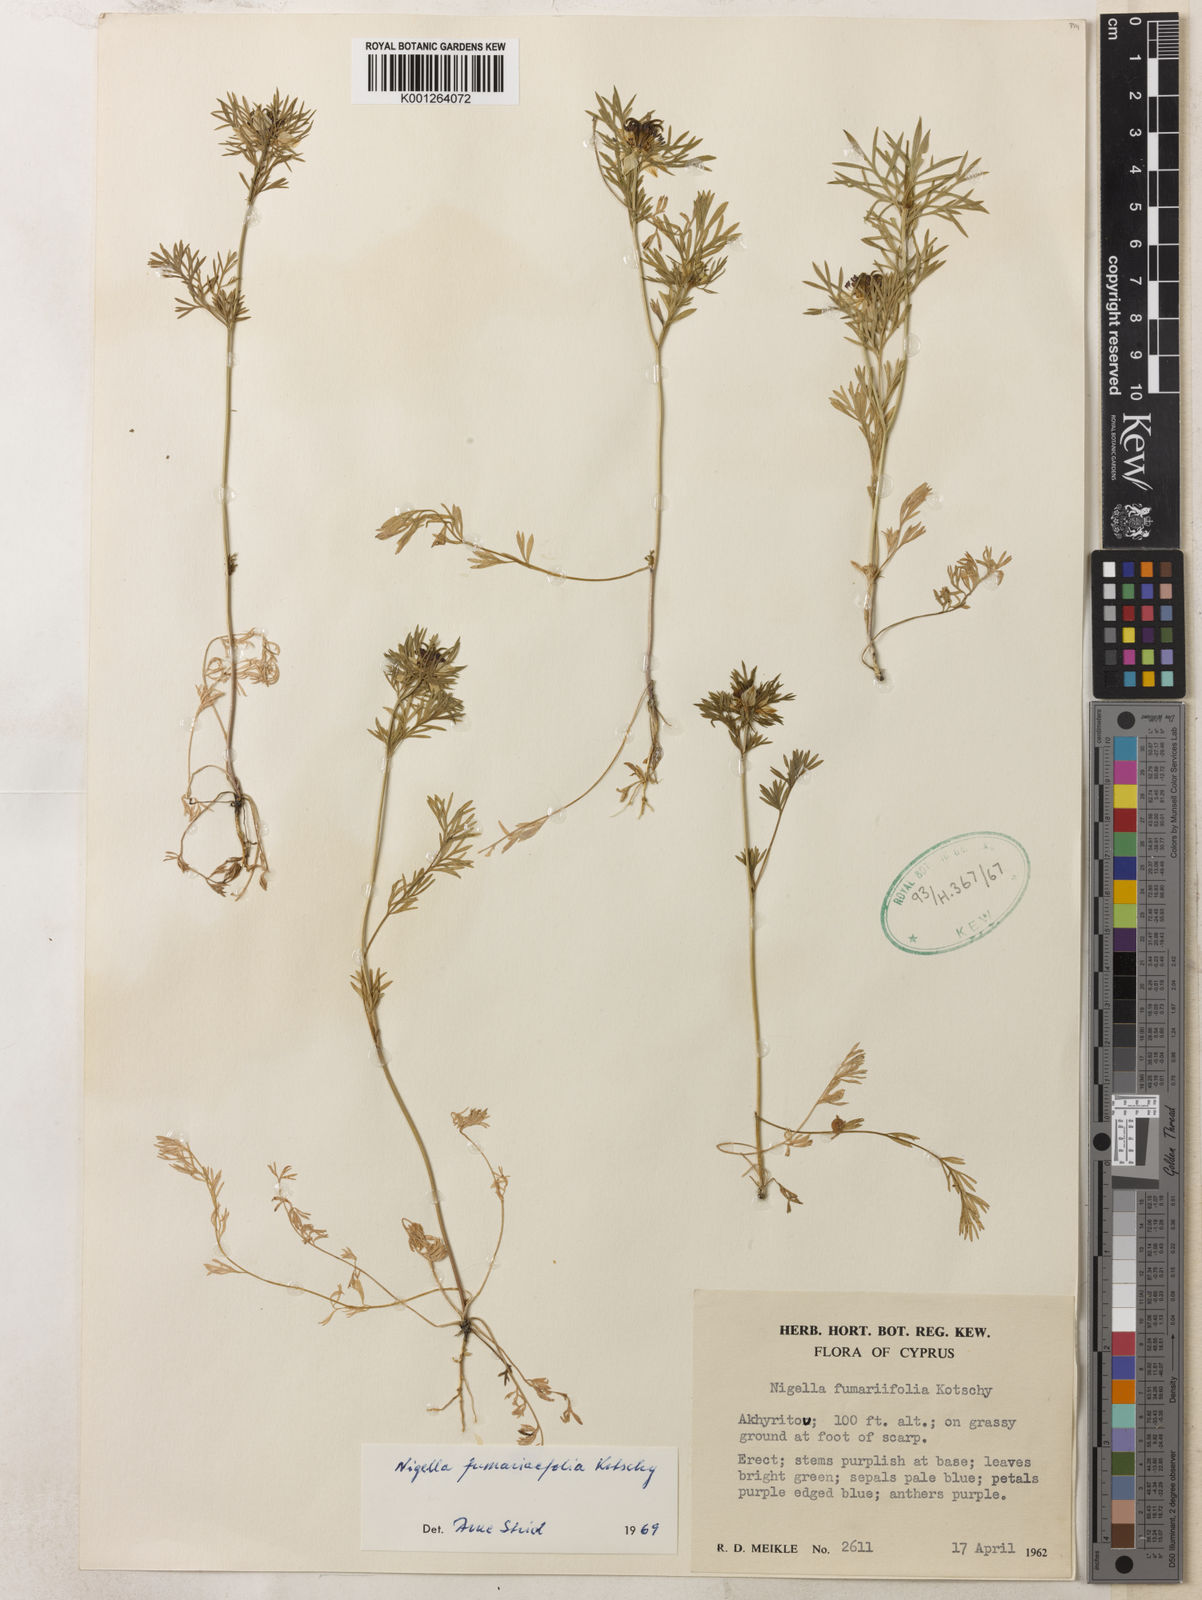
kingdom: Plantae
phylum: Tracheophyta
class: Magnoliopsida
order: Ranunculales
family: Ranunculaceae
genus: Nigella
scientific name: Nigella
